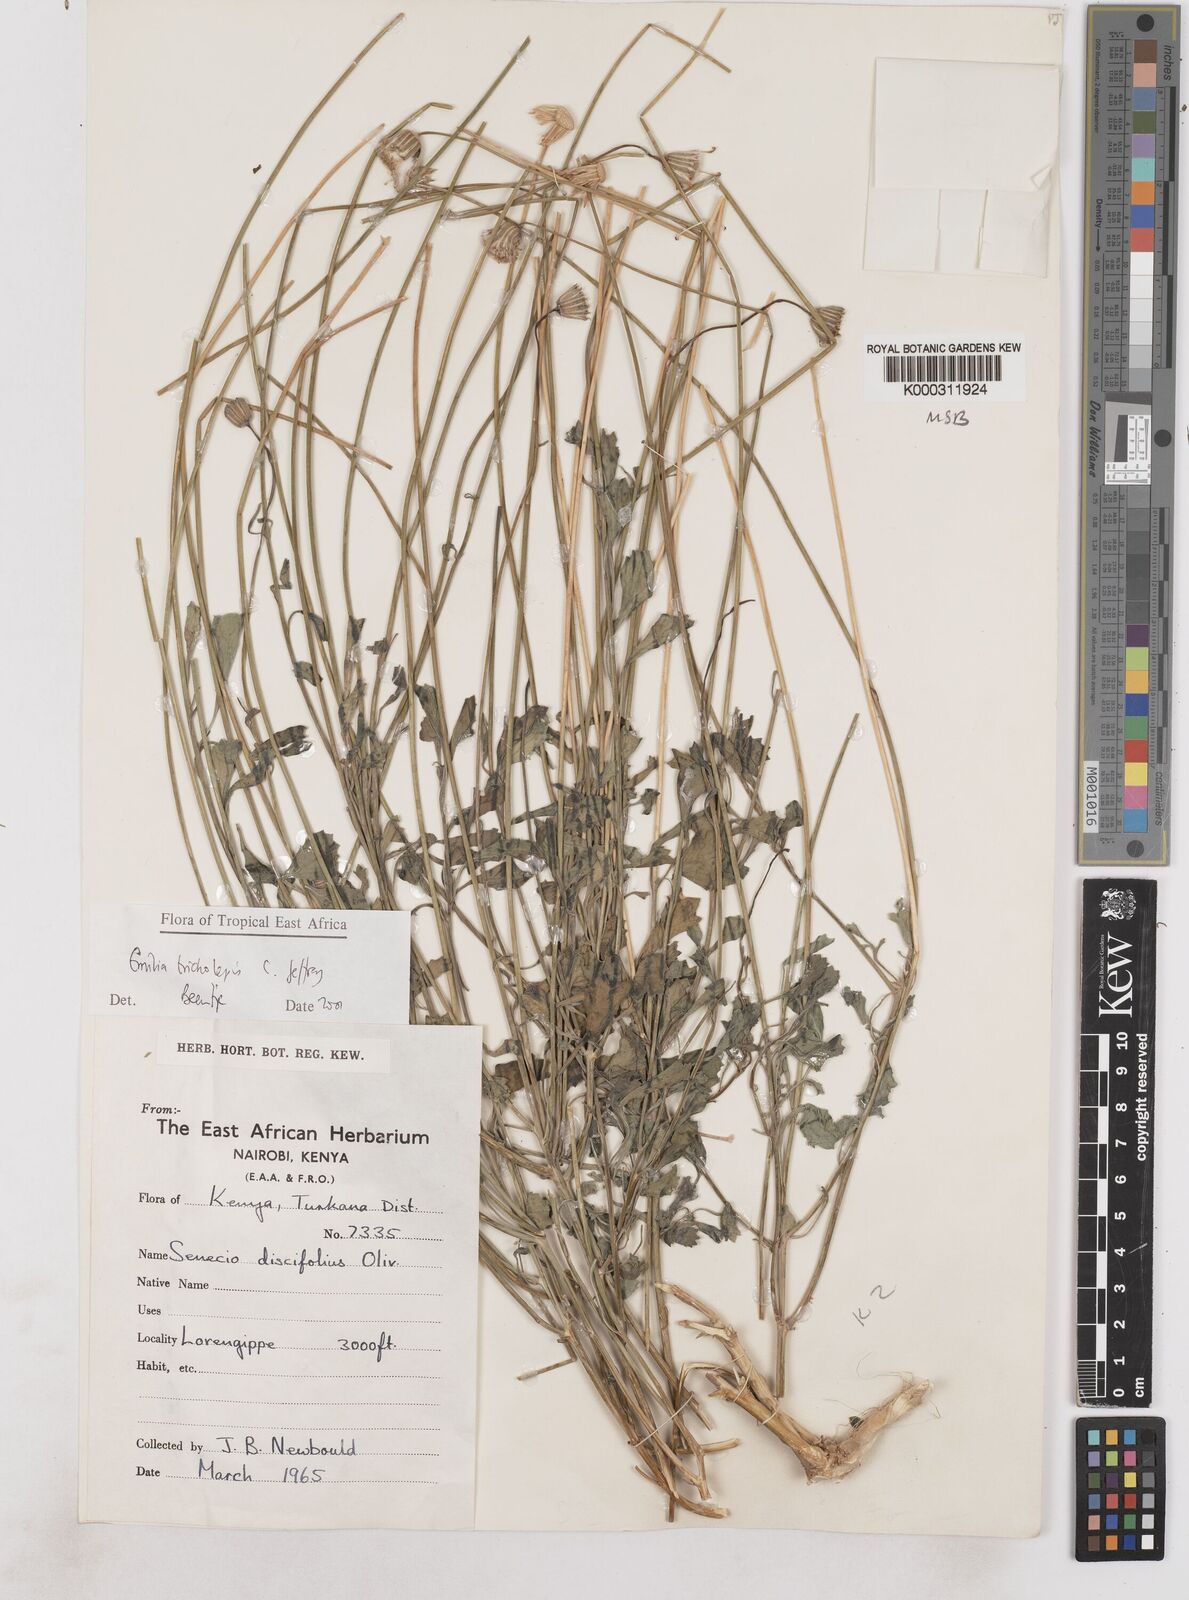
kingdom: Plantae
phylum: Tracheophyta
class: Magnoliopsida
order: Asterales
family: Asteraceae
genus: Emilia
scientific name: Emilia tricholepis
